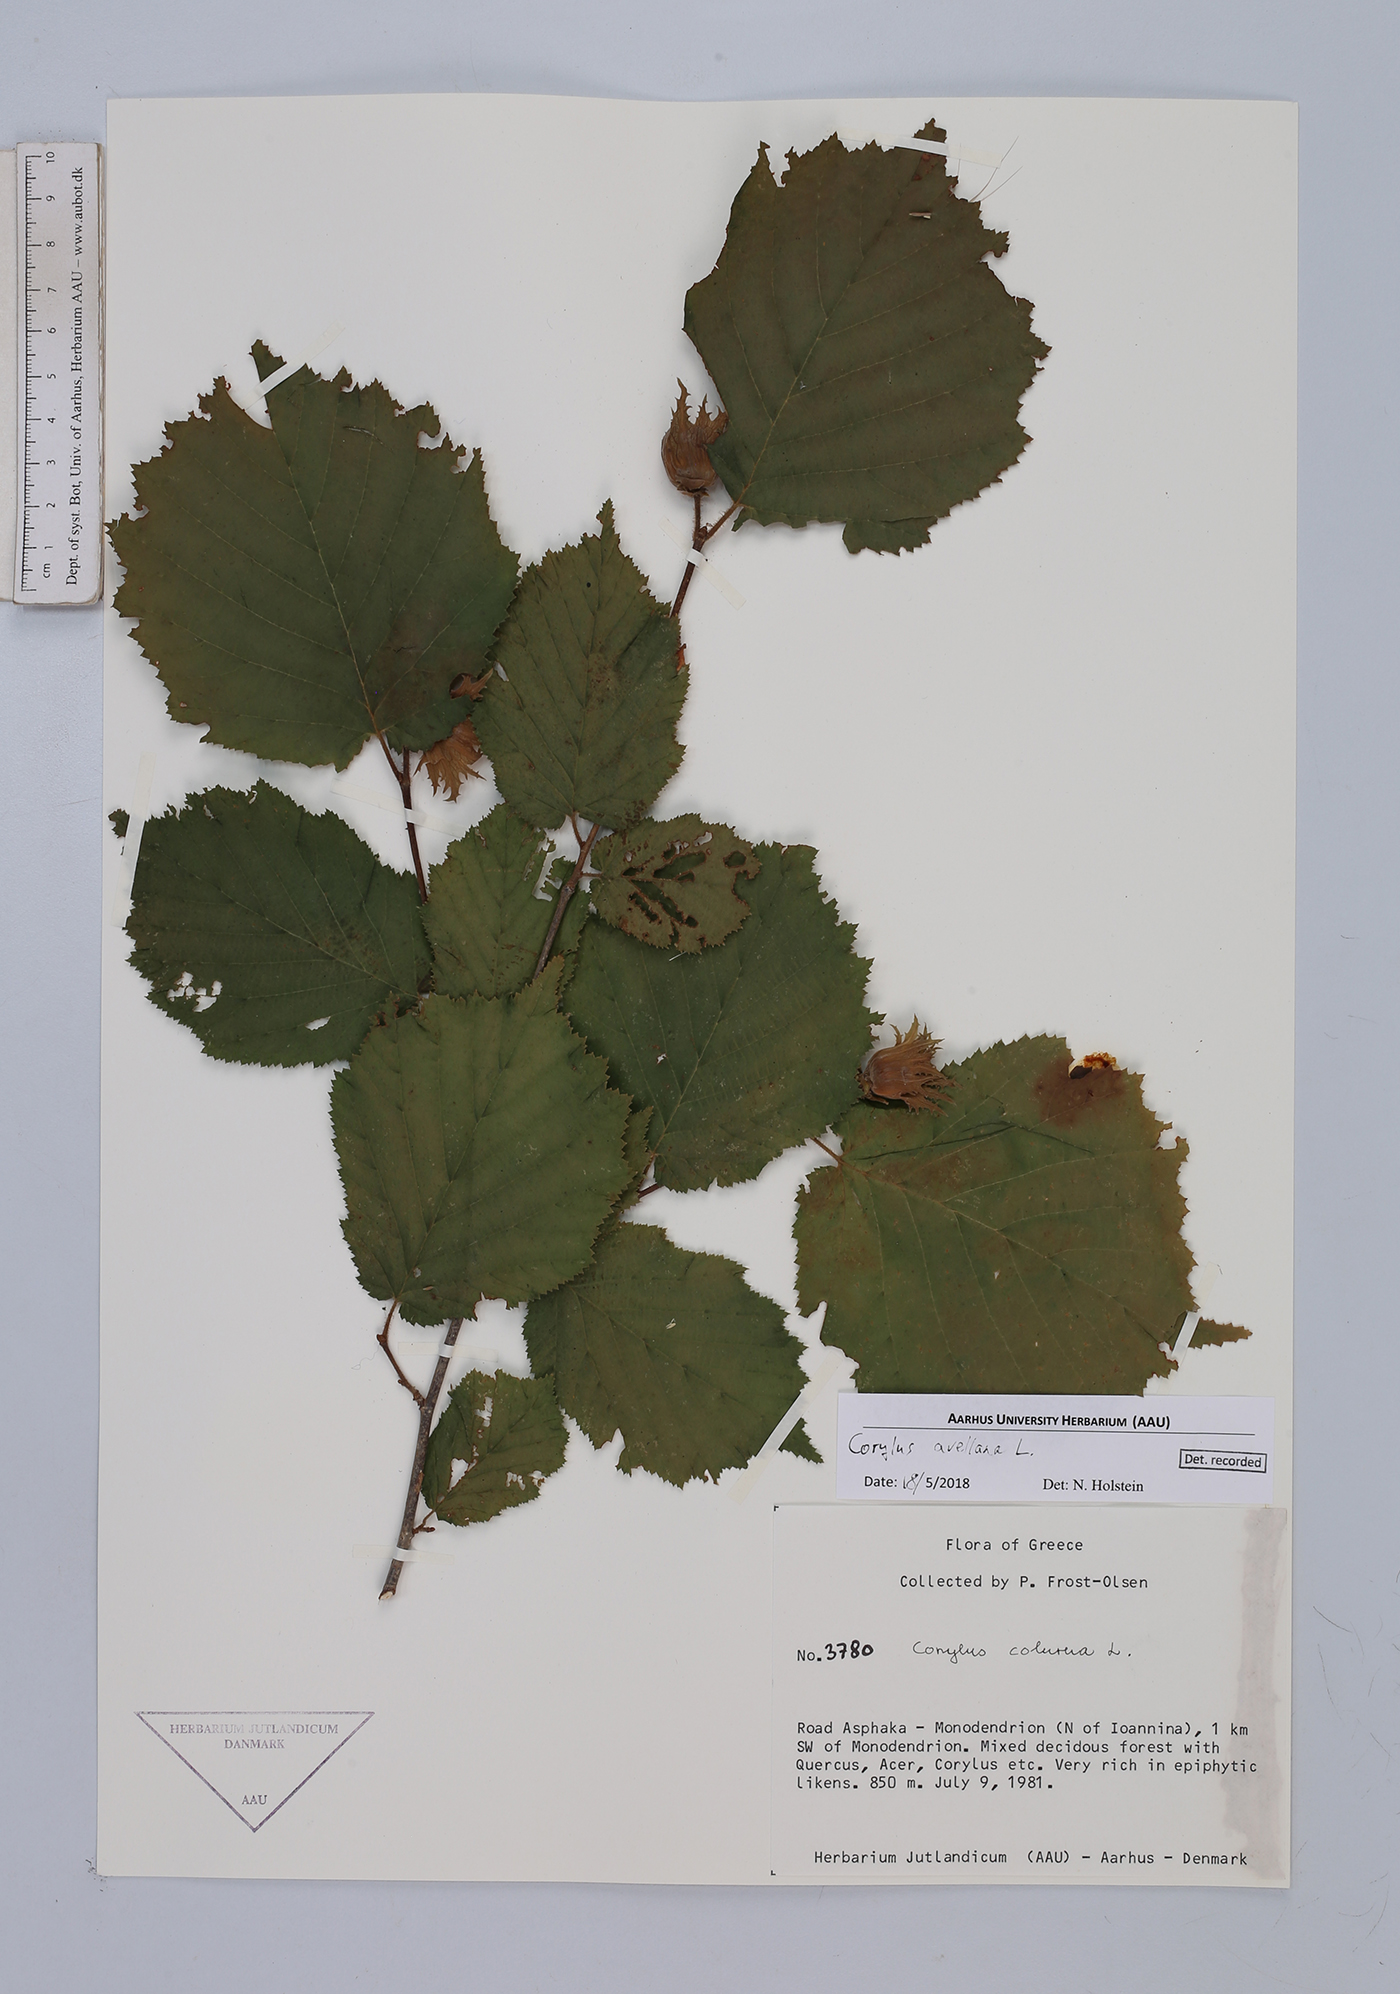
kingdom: Plantae
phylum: Tracheophyta
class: Magnoliopsida
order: Fagales
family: Betulaceae
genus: Corylus
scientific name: Corylus avellana
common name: European hazel
